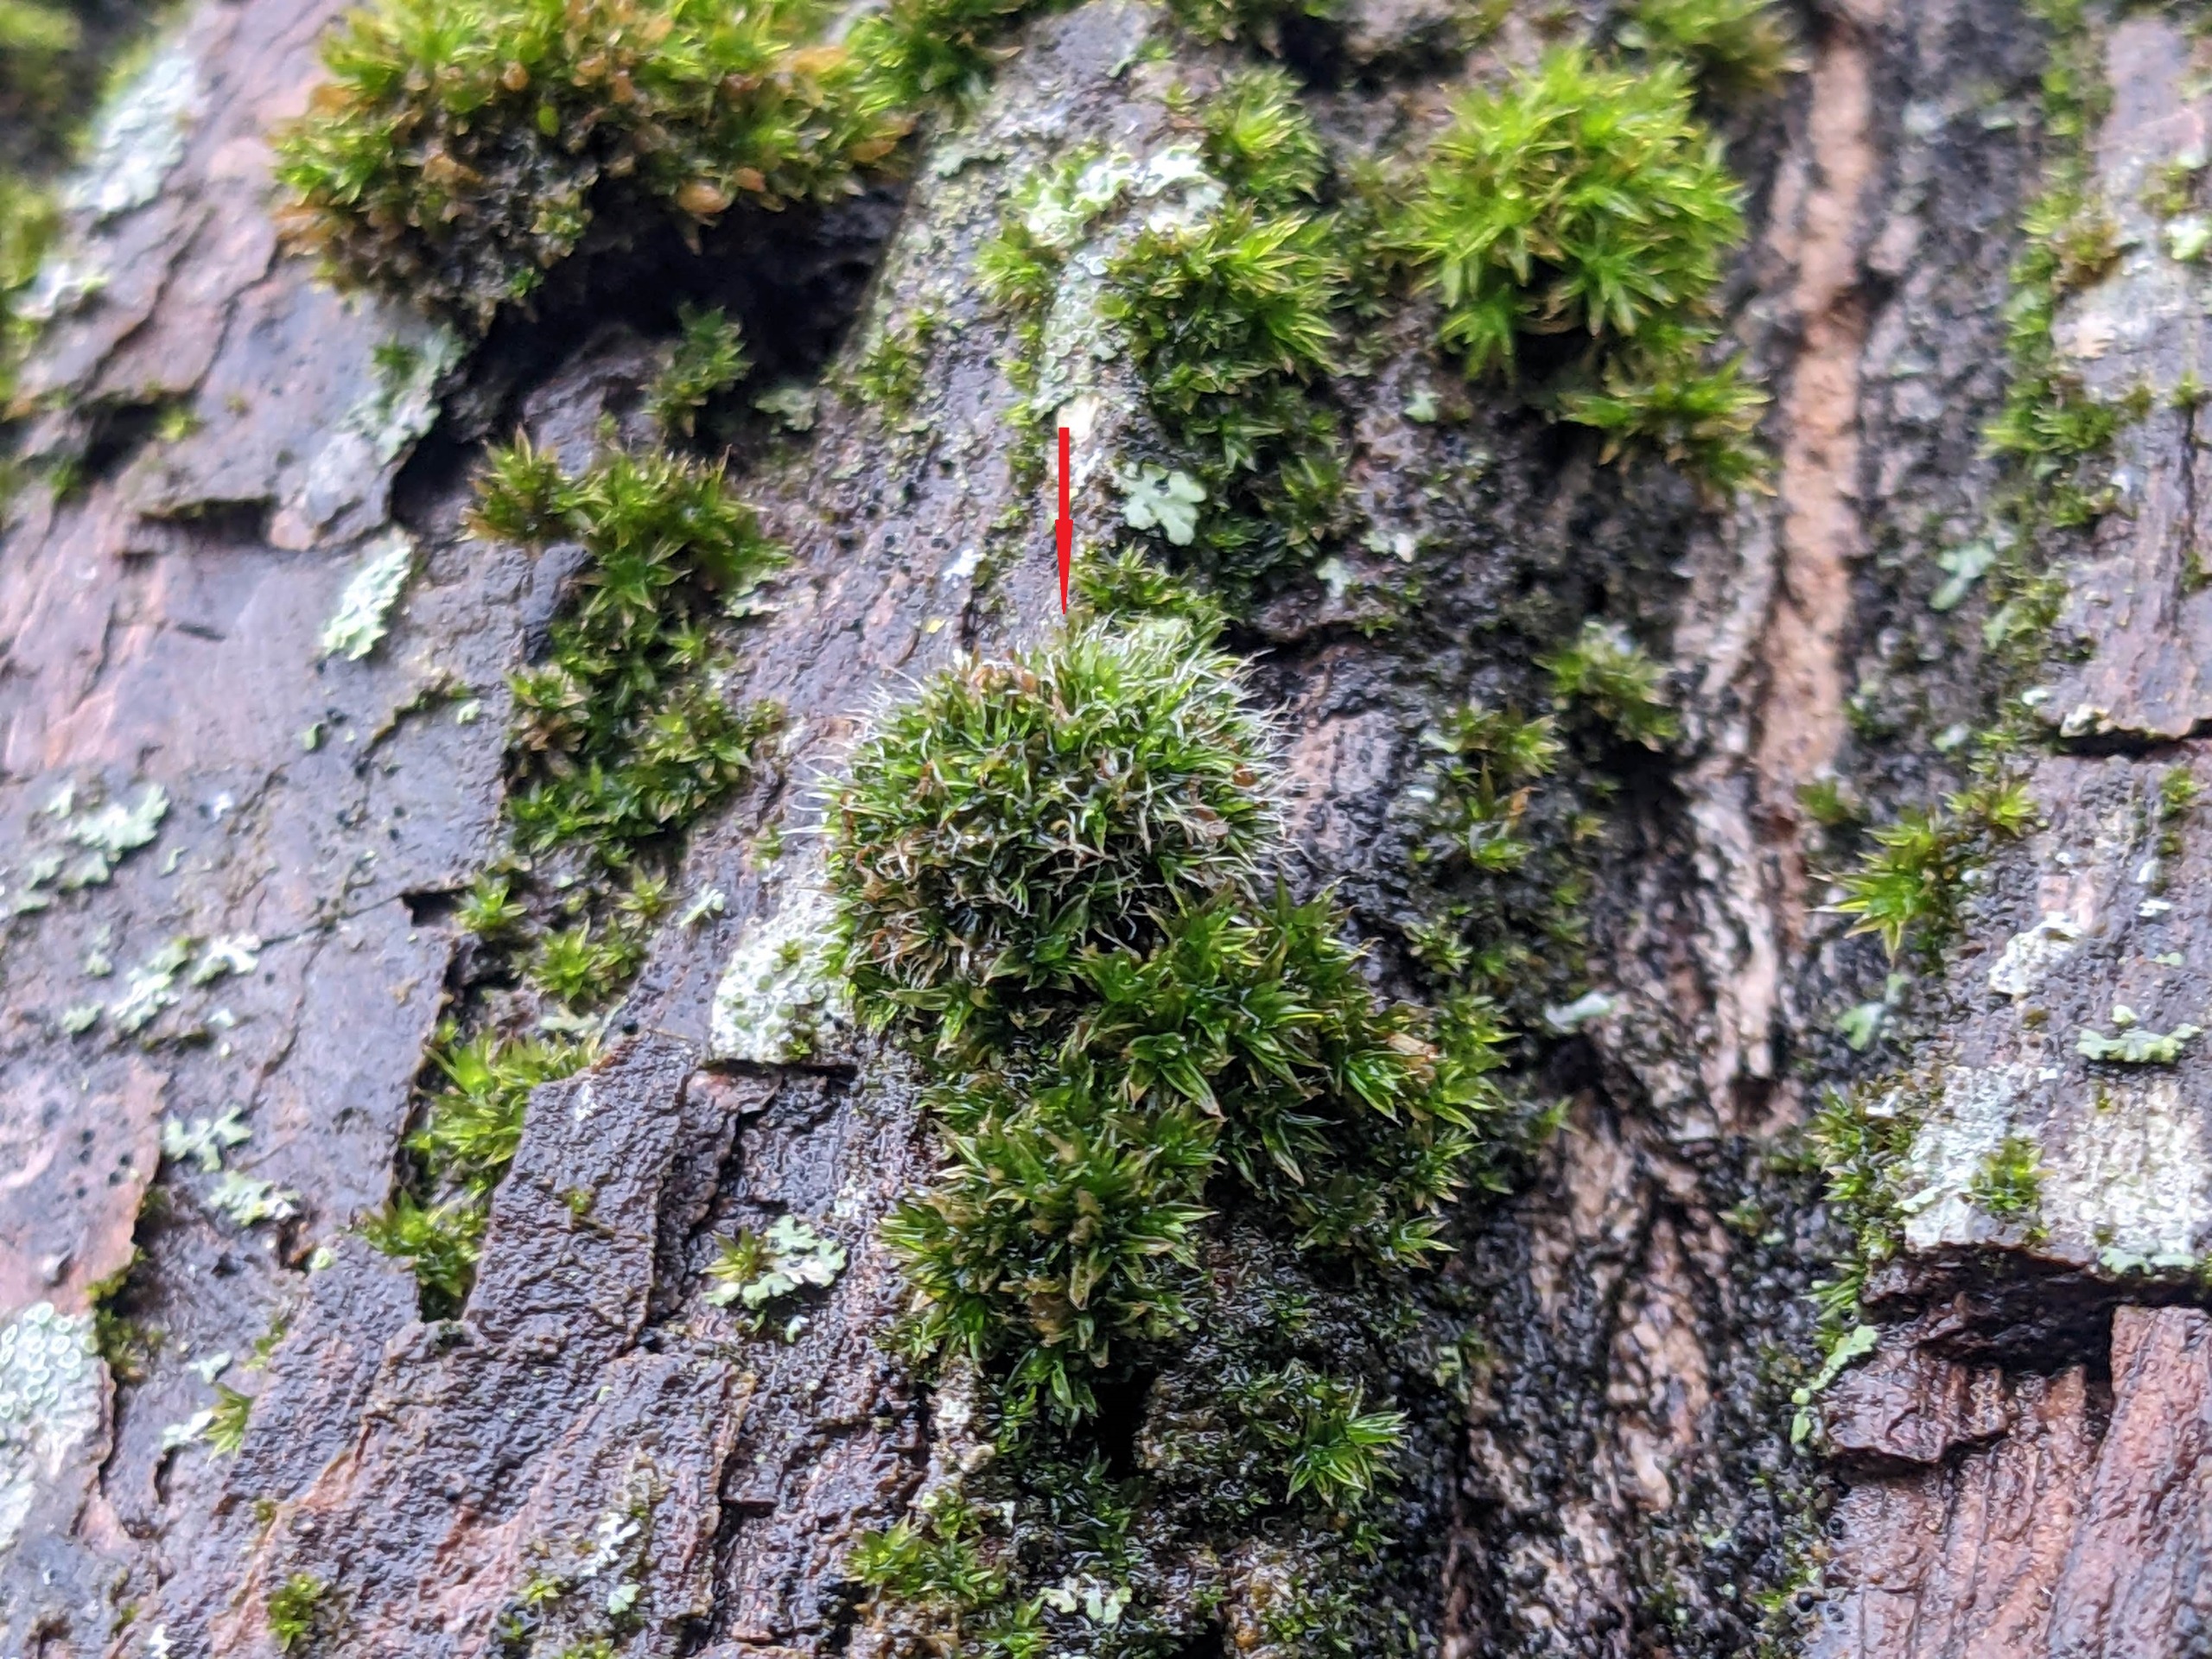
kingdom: Plantae
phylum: Bryophyta
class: Bryopsida
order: Grimmiales
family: Grimmiaceae
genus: Grimmia
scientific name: Grimmia pulvinata
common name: Pude-gråmos
